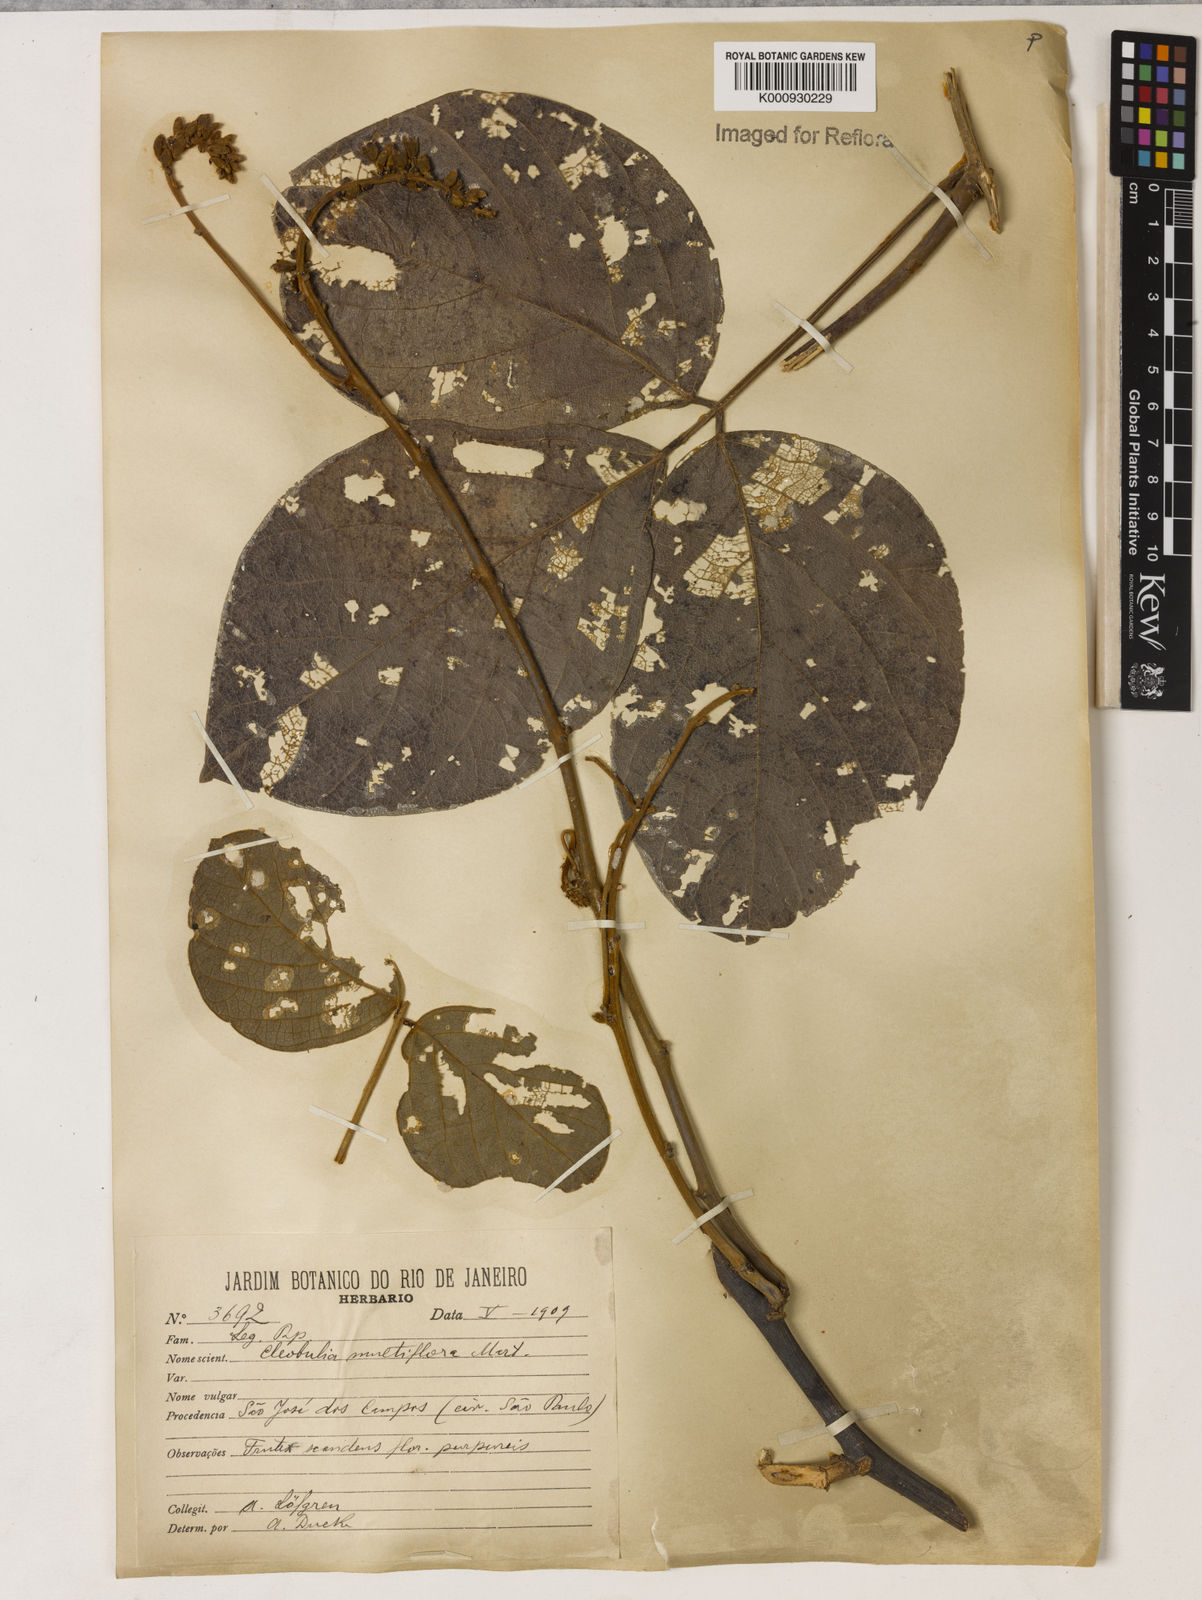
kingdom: Plantae
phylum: Tracheophyta
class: Magnoliopsida
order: Fabales
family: Fabaceae
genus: Cleobulia
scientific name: Cleobulia coccinea
